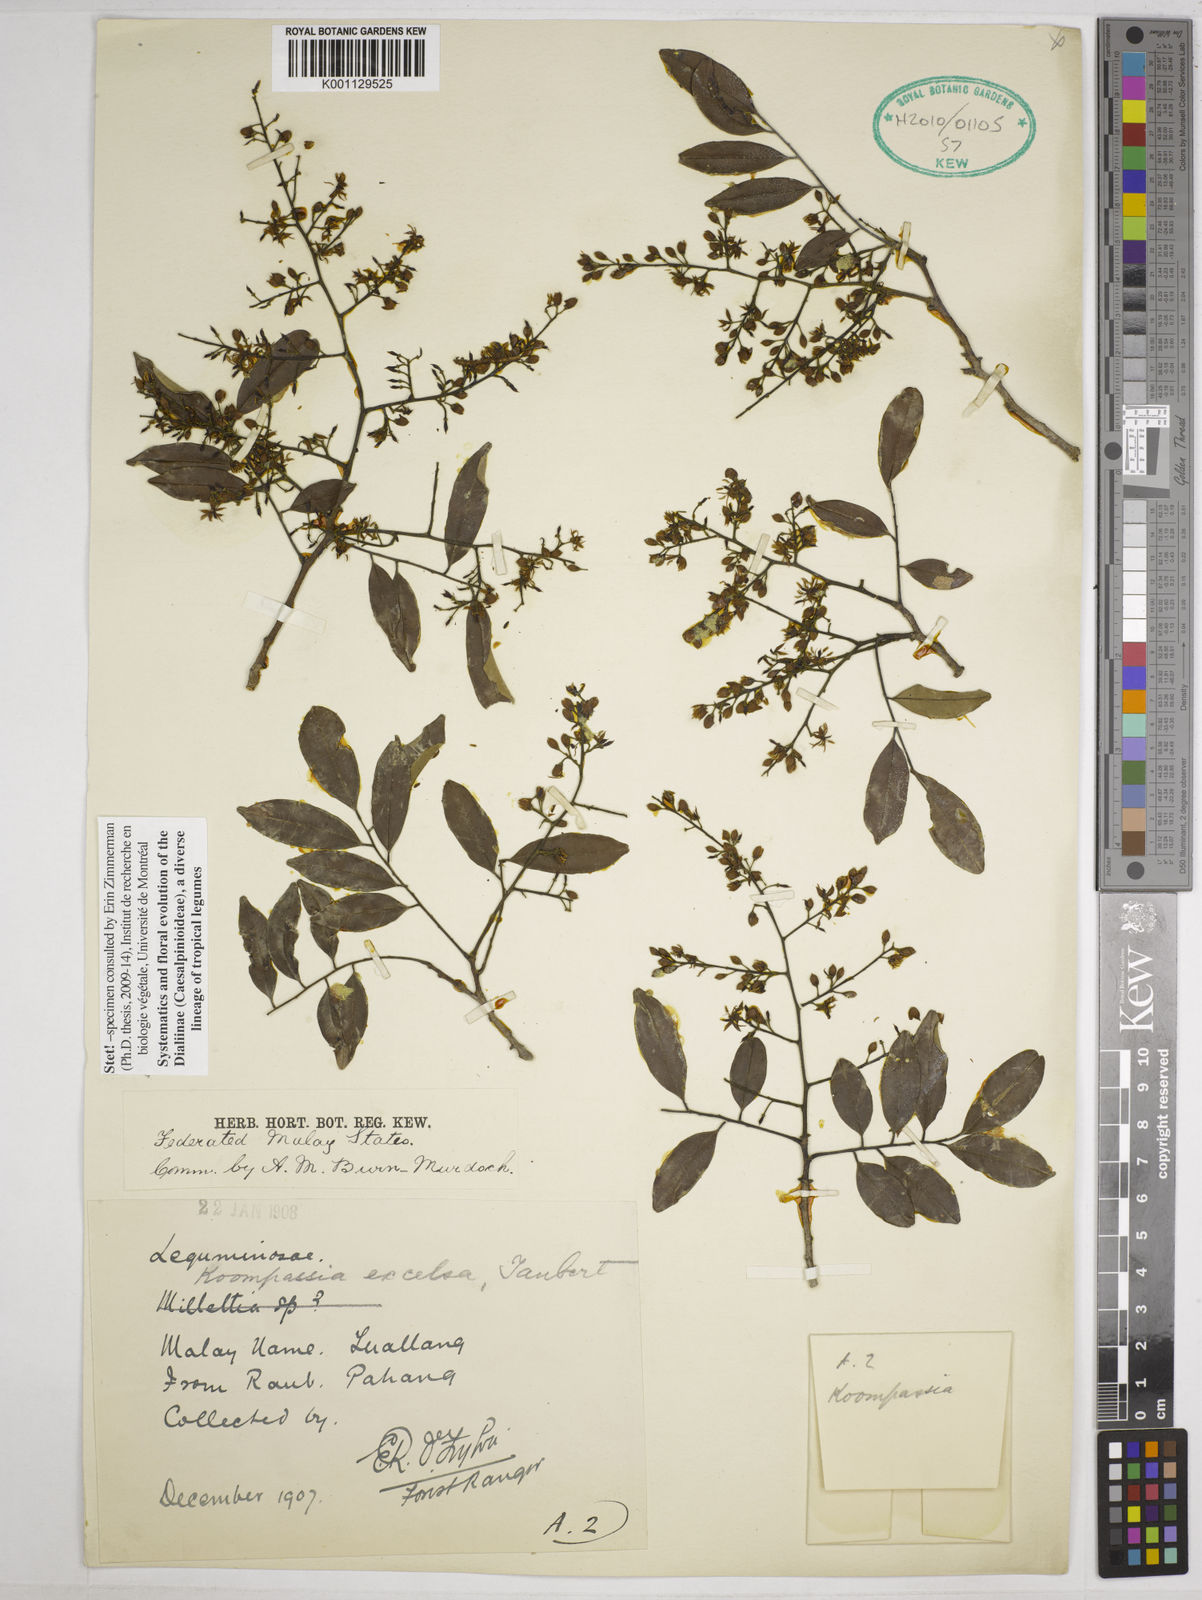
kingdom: Plantae
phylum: Tracheophyta
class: Magnoliopsida
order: Fabales
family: Fabaceae
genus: Koompassia
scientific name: Koompassia malaccensis
